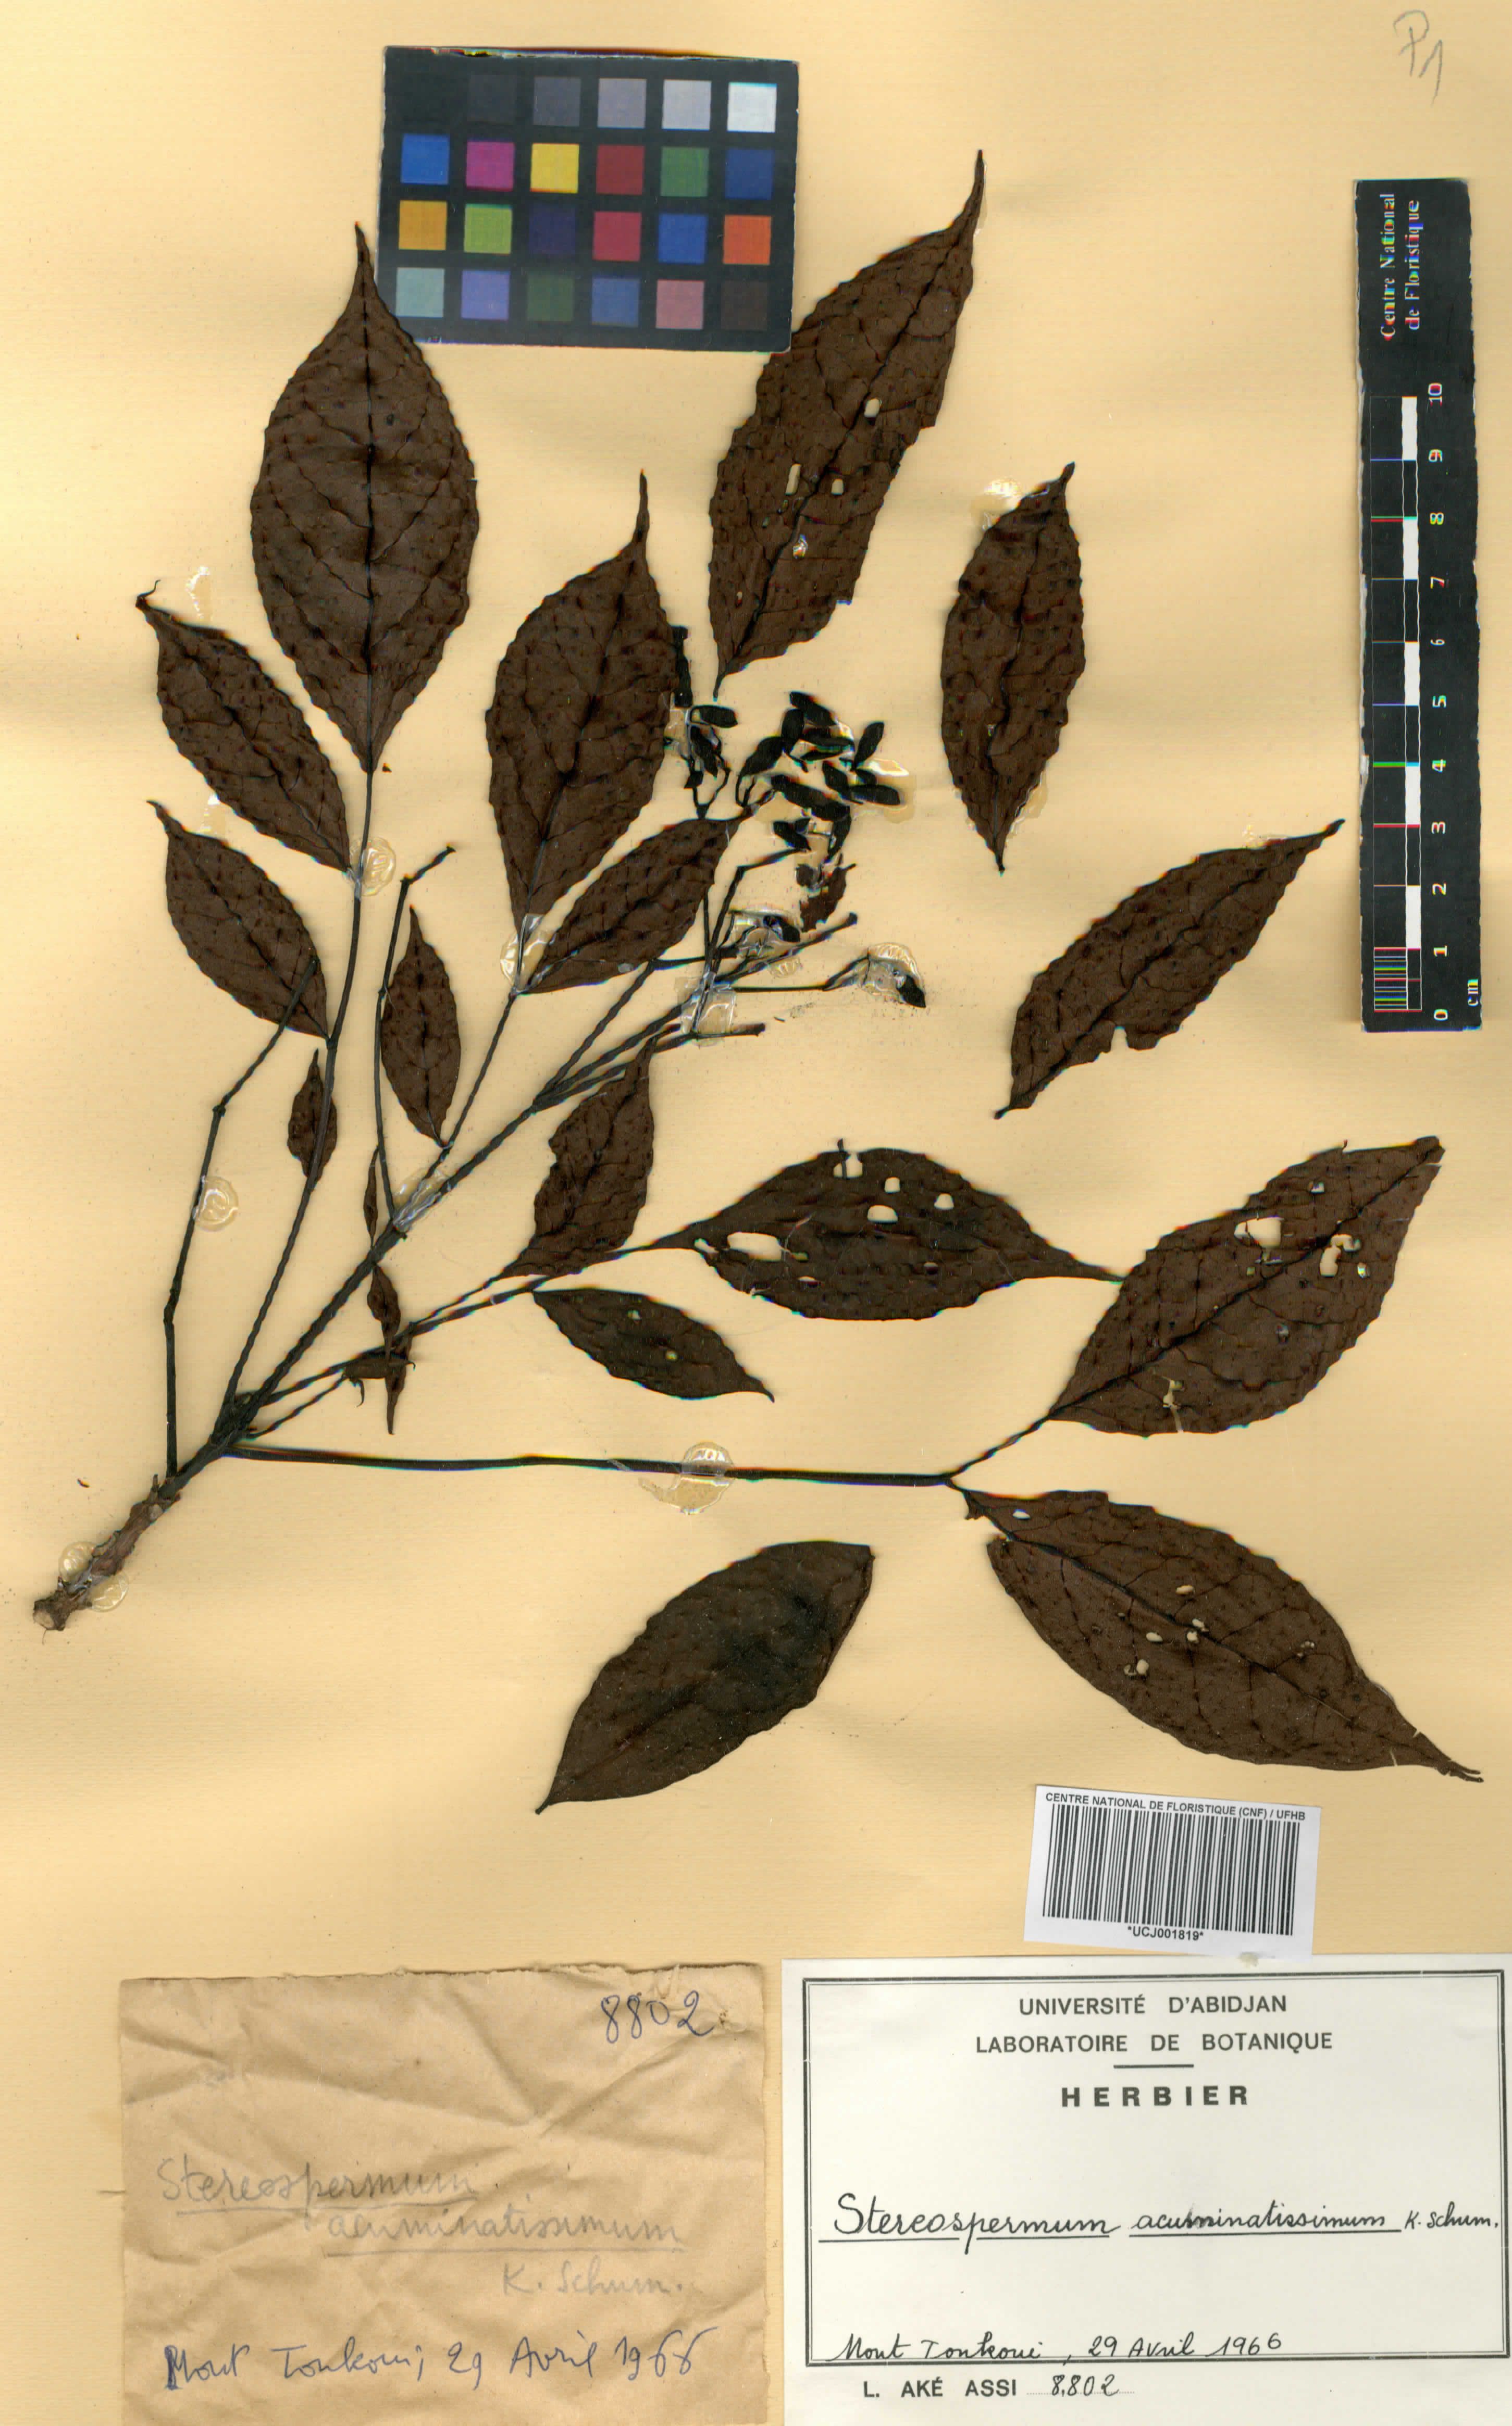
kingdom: Plantae
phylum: Tracheophyta
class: Magnoliopsida
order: Lamiales
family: Bignoniaceae
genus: Stereospermum
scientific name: Stereospermum acuminatissimum
